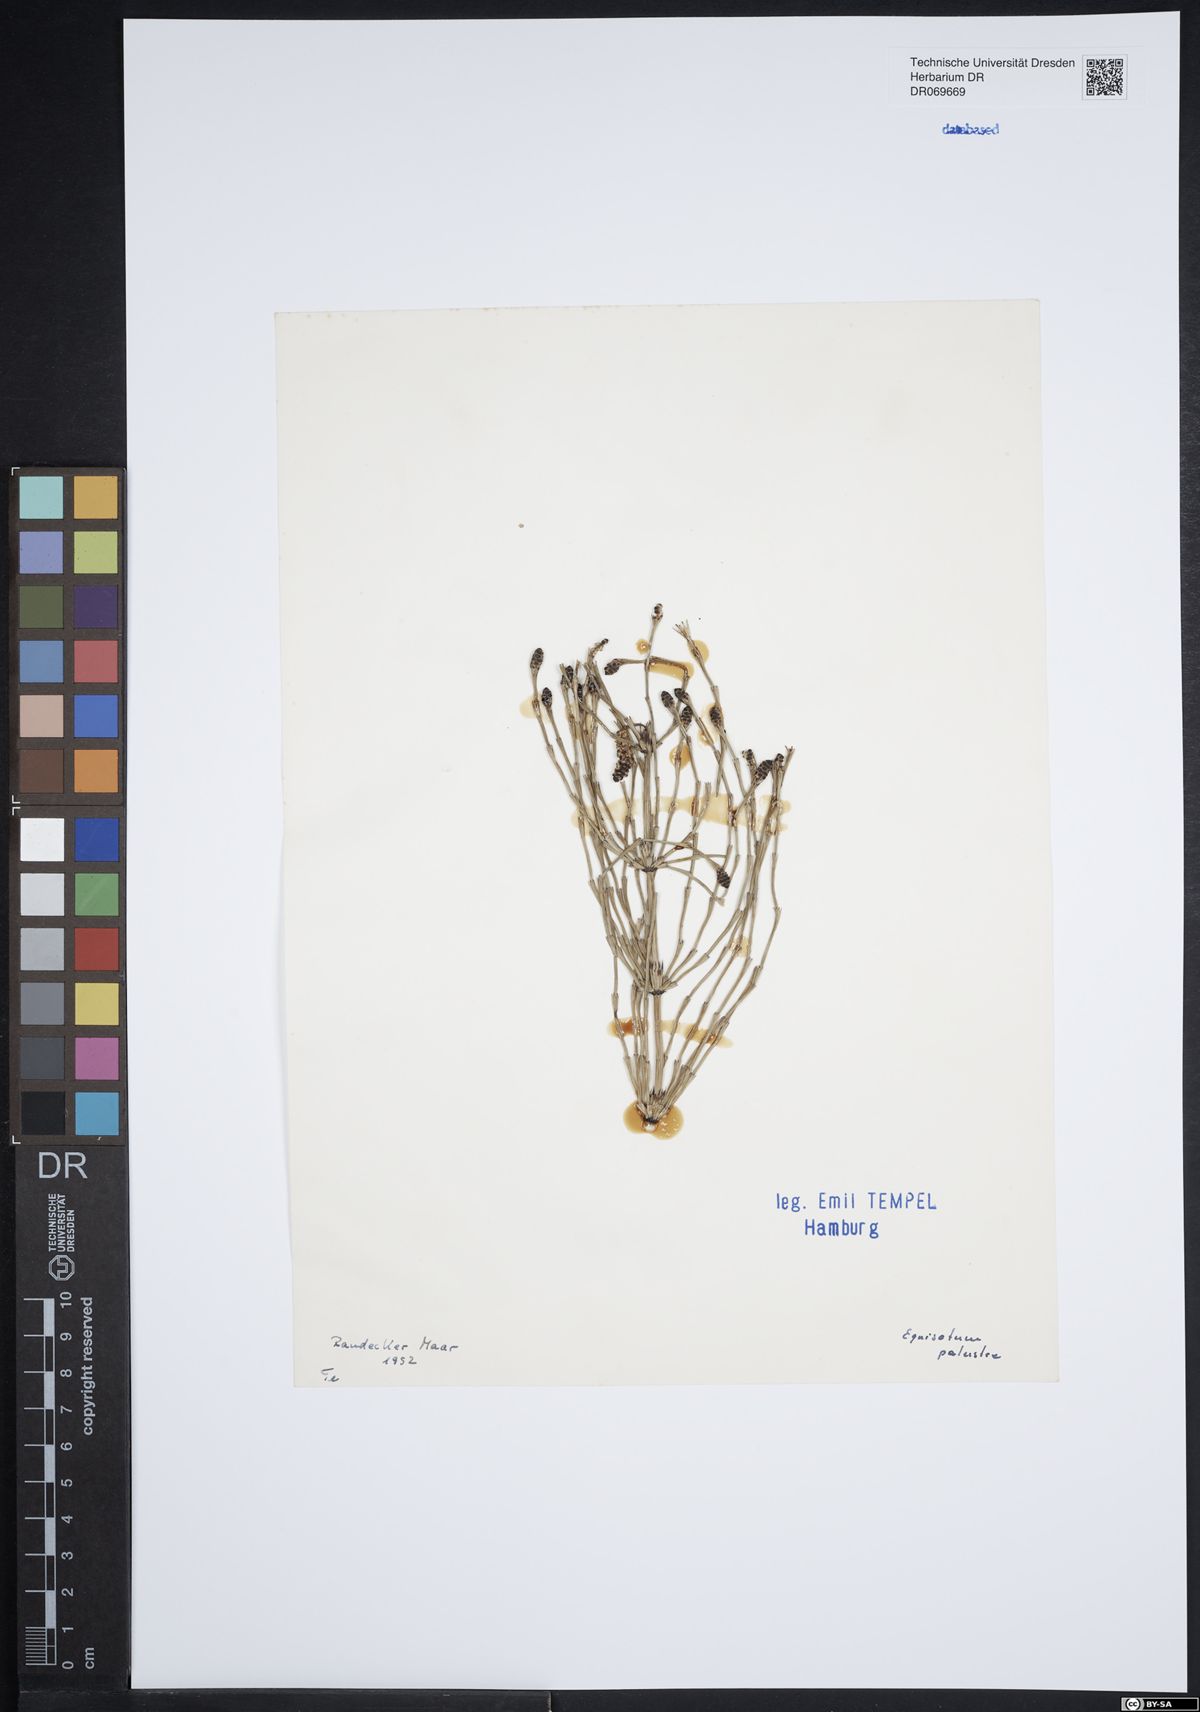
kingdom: Plantae
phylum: Tracheophyta
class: Polypodiopsida
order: Equisetales
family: Equisetaceae
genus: Equisetum
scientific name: Equisetum palustre
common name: Marsh horsetail
